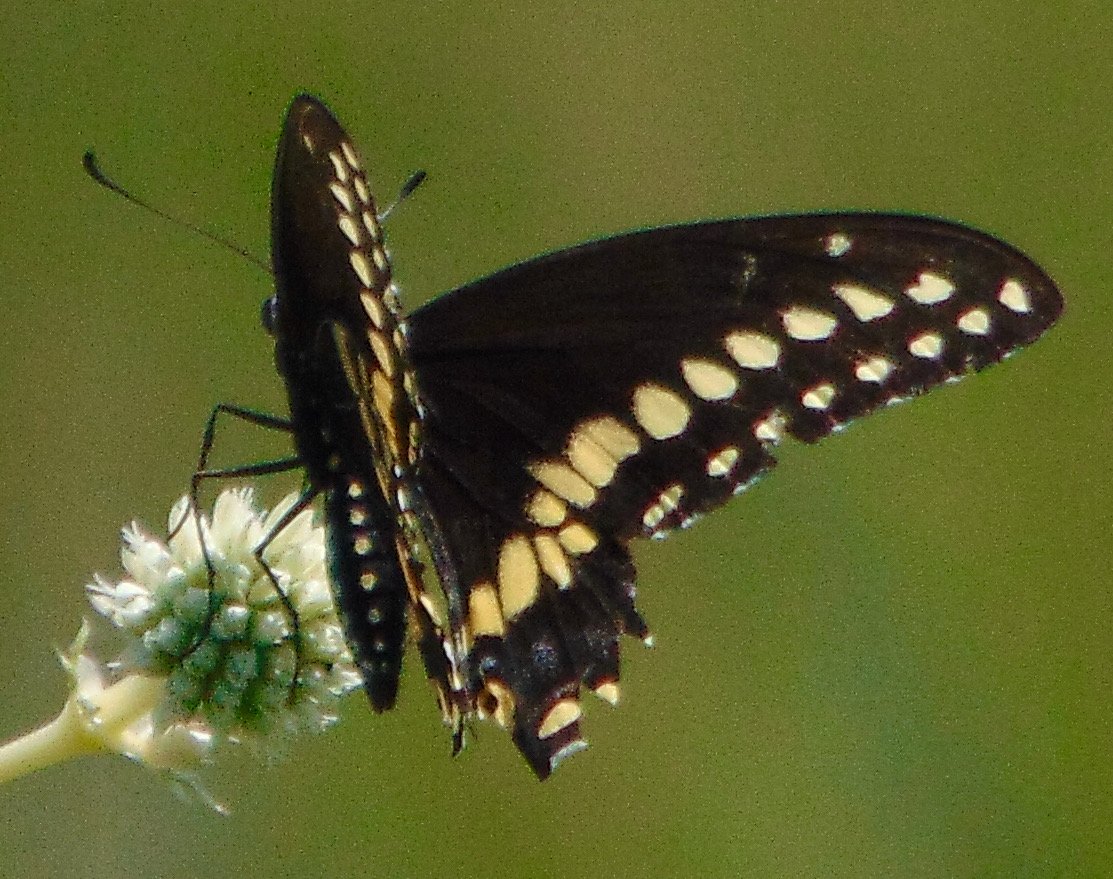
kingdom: Animalia
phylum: Arthropoda
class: Insecta
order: Lepidoptera
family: Papilionidae
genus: Papilio
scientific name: Papilio polyxenes
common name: Black Swallowtail
